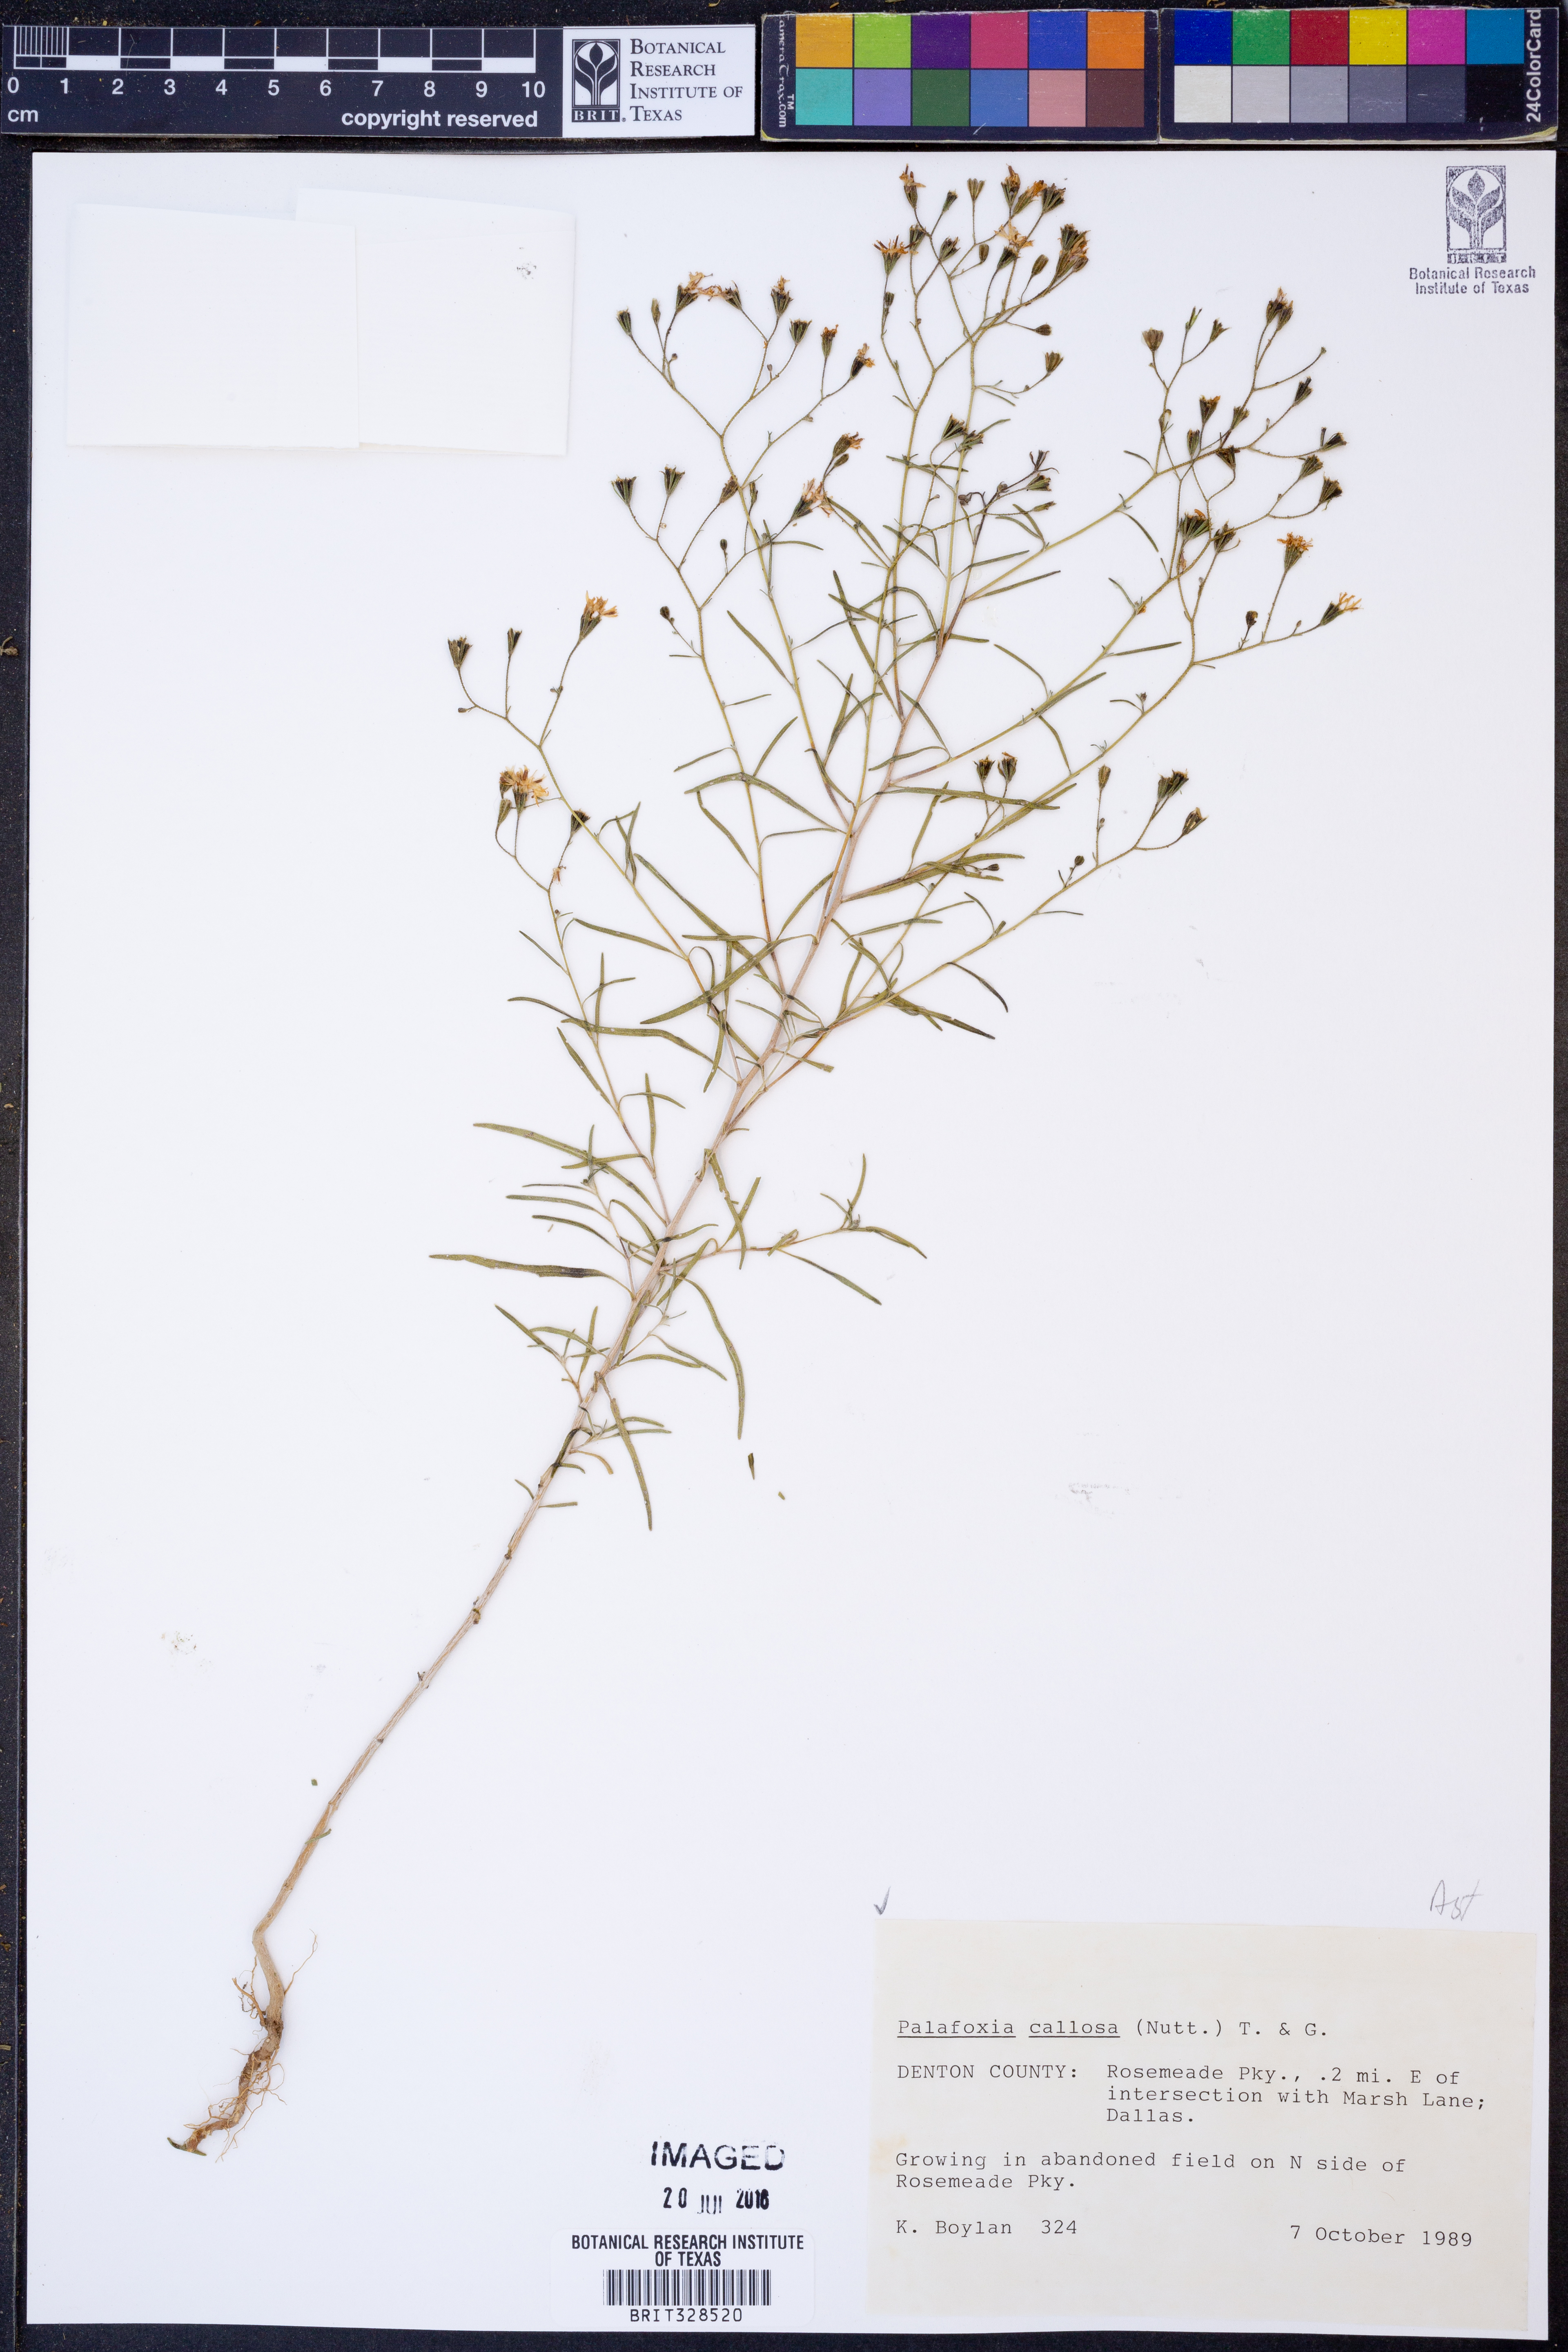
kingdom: Plantae
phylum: Tracheophyta
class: Magnoliopsida
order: Asterales
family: Asteraceae
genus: Palafoxia
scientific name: Palafoxia callosa
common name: Small palafox
